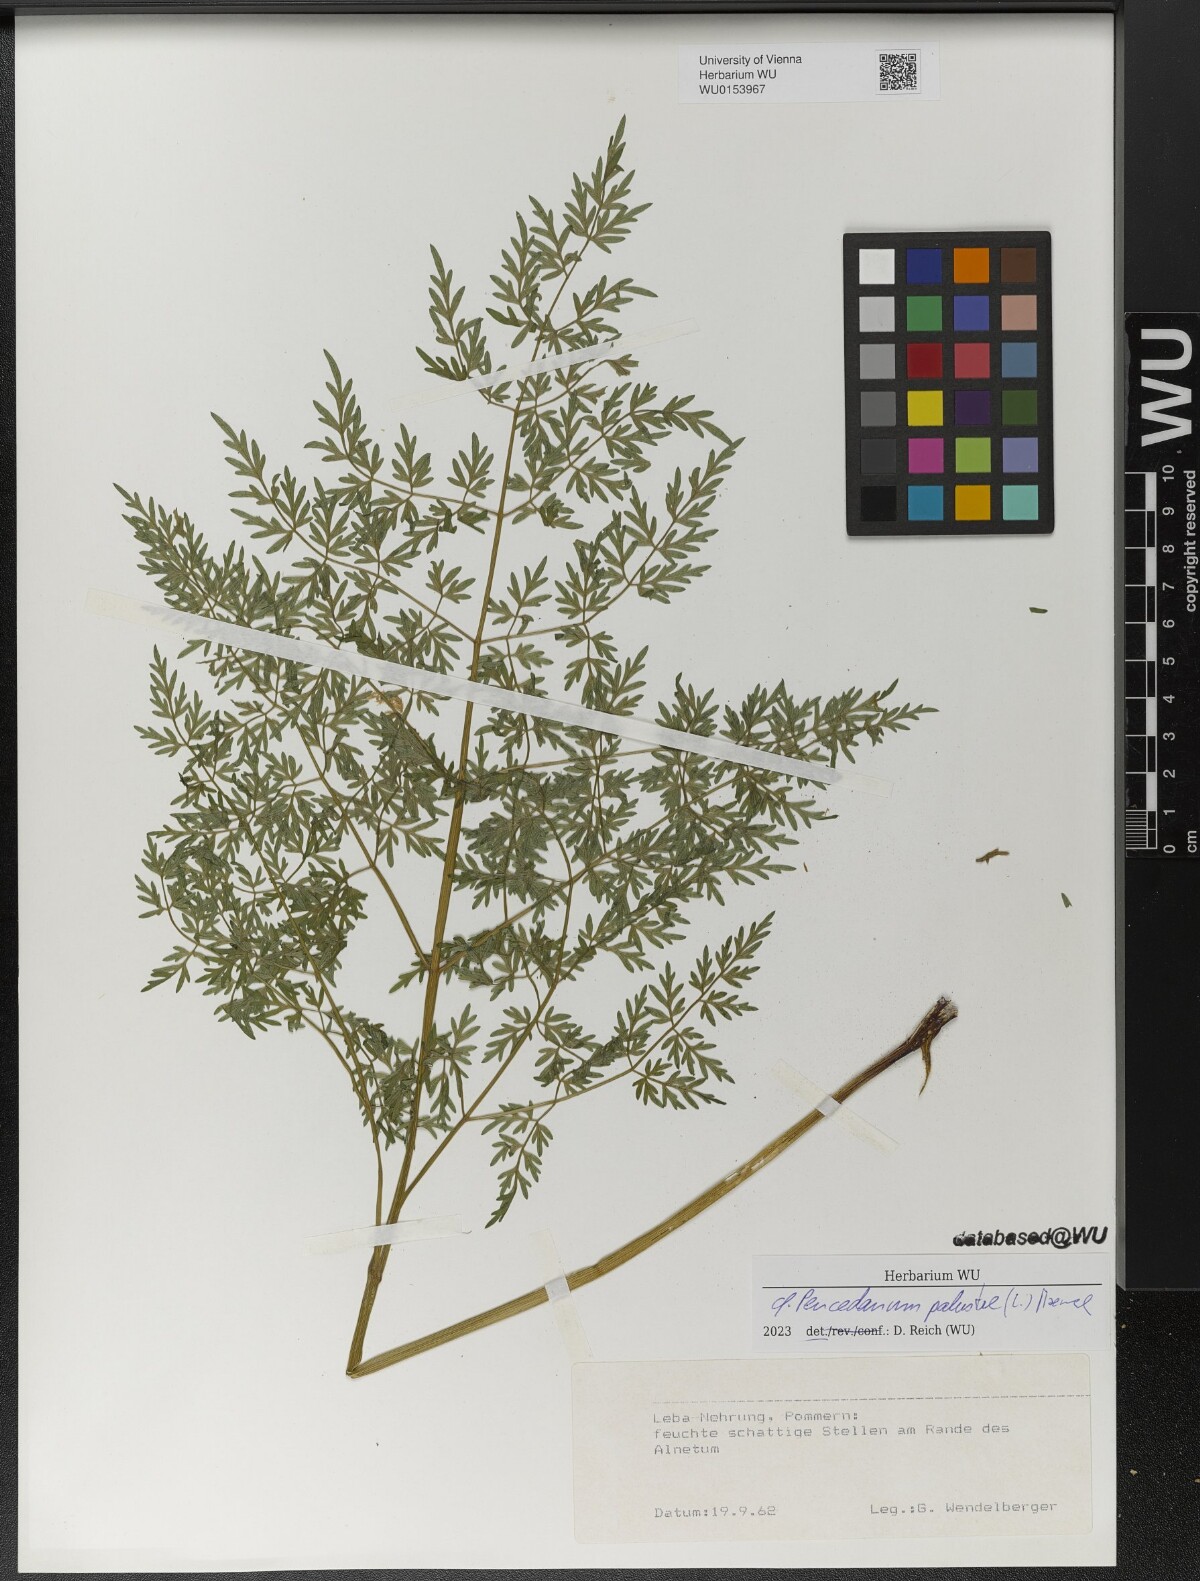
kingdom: Plantae
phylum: Tracheophyta
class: Magnoliopsida
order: Apiales
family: Apiaceae
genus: Thysselinum
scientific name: Thysselinum palustre
